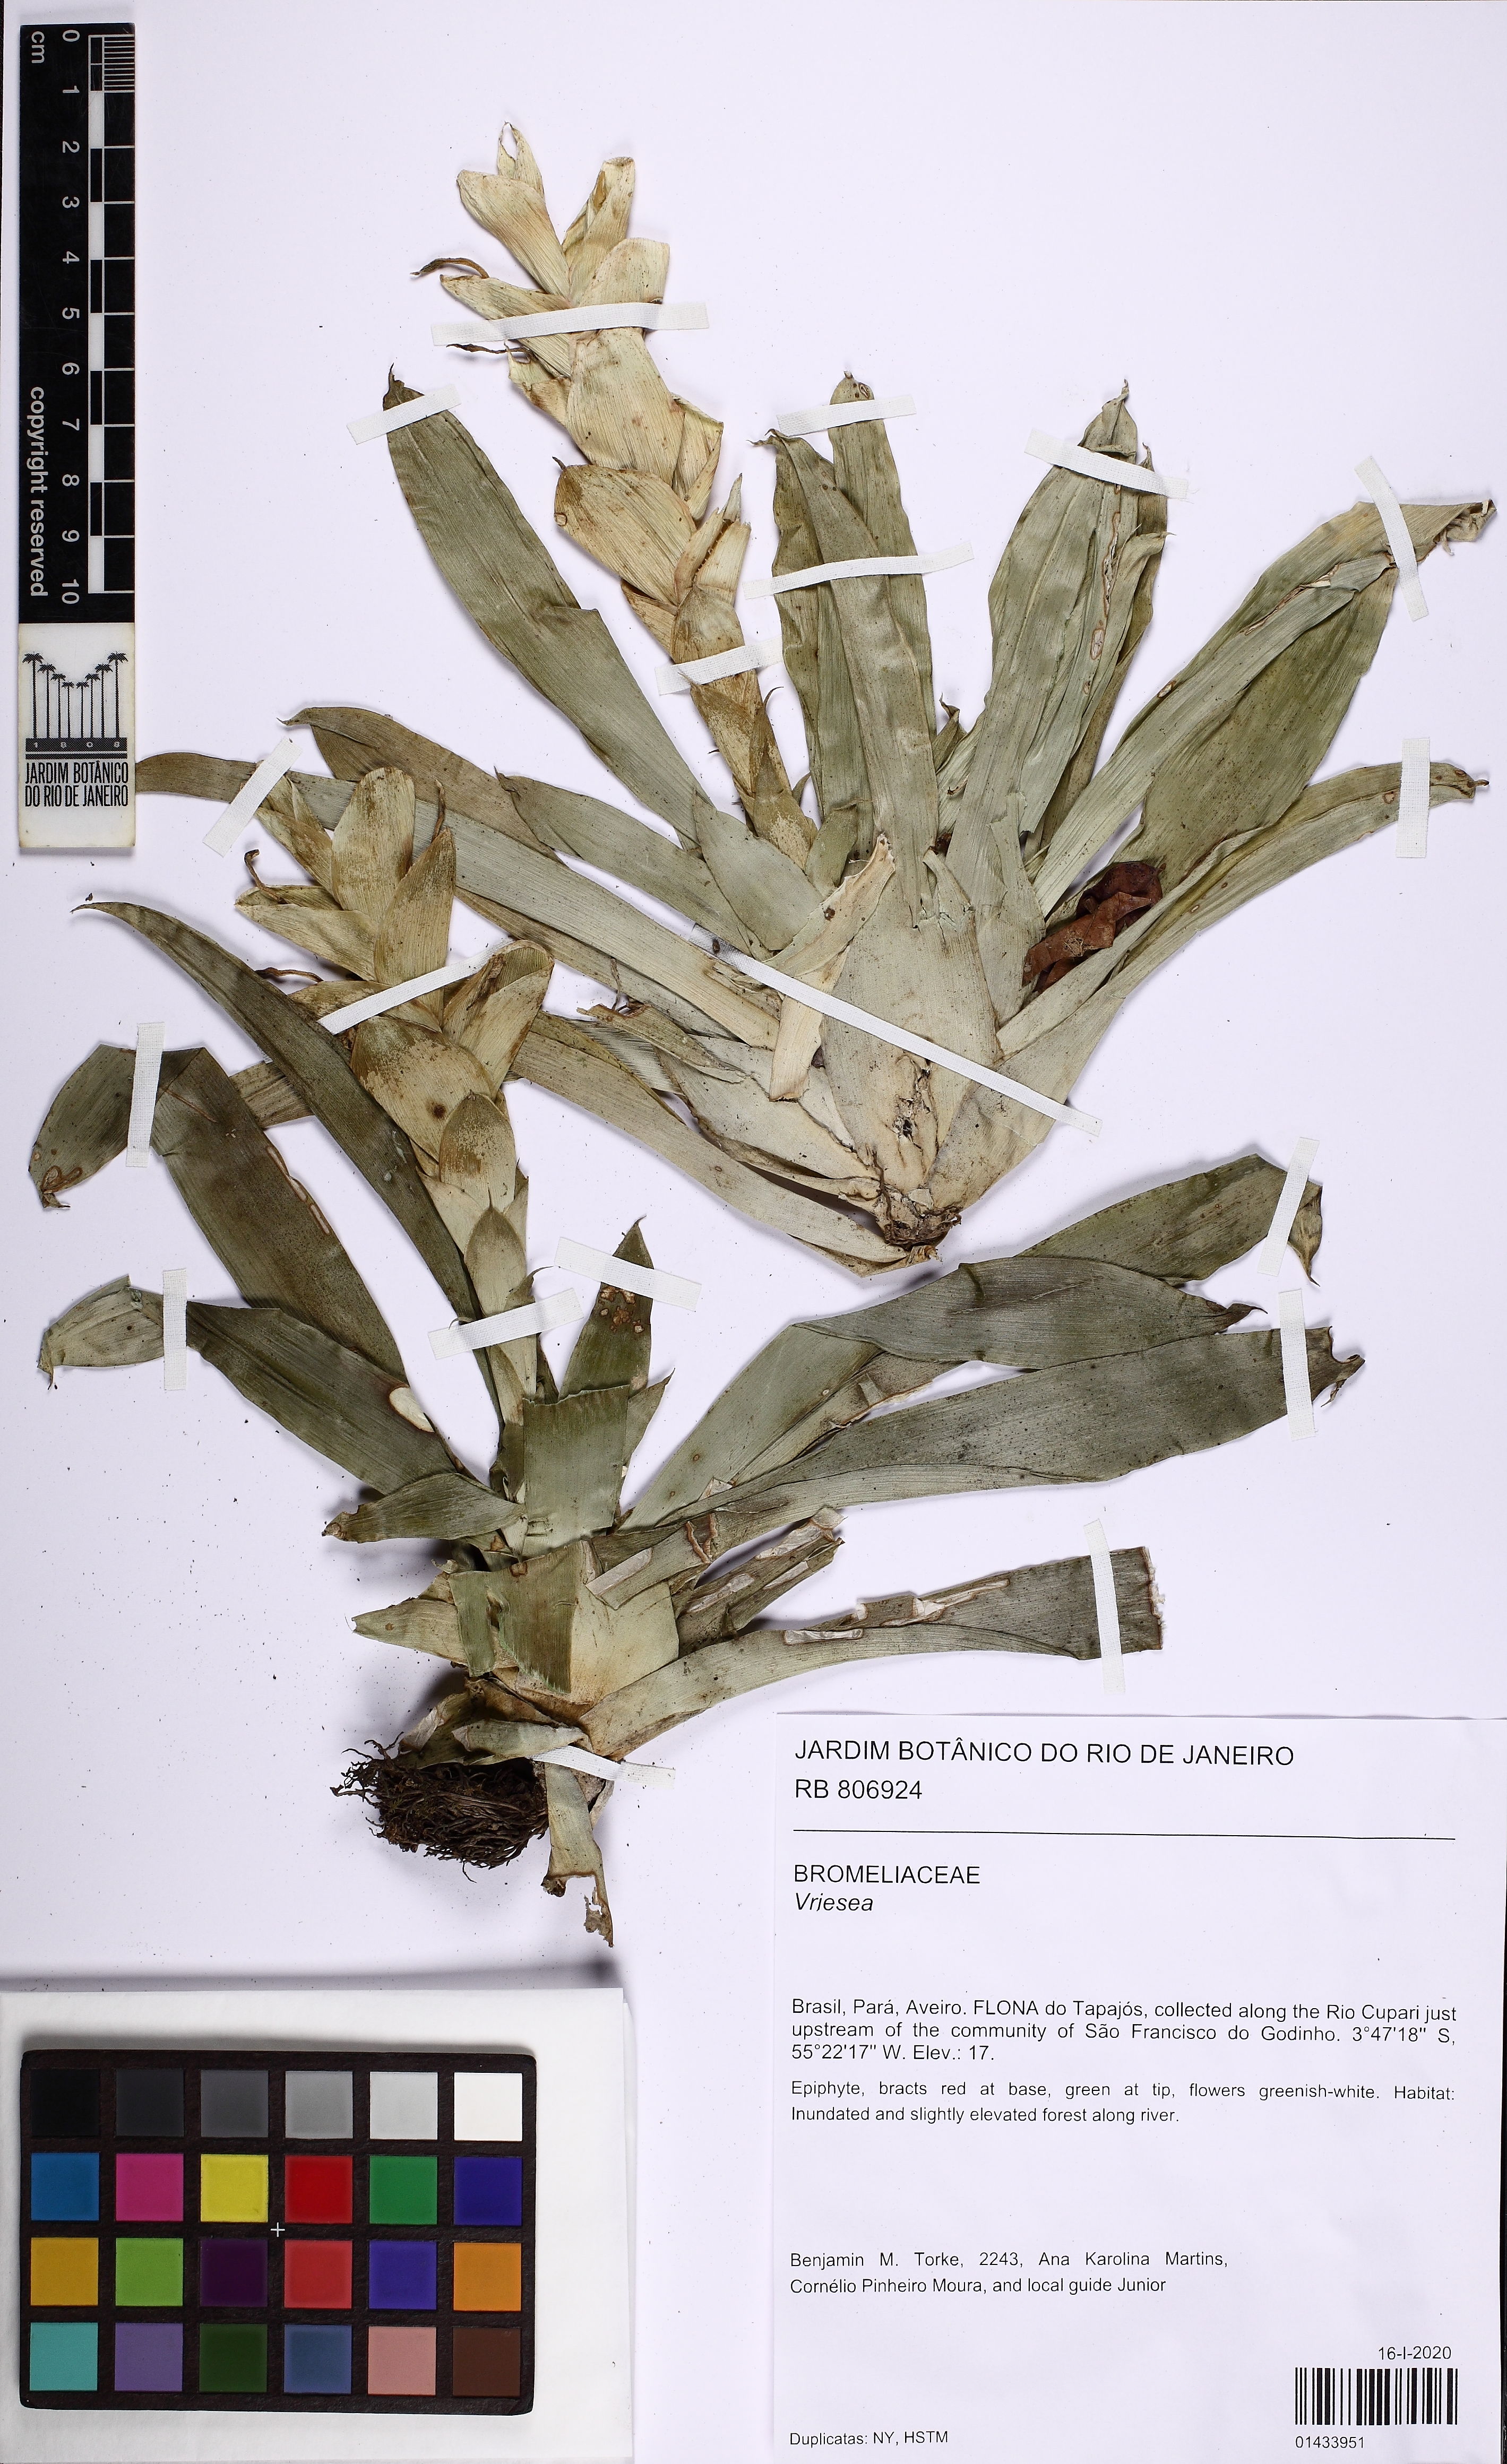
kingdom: Plantae
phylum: Tracheophyta
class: Liliopsida
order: Poales
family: Bromeliaceae
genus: Tillandsia
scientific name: Tillandsia heliconioides
